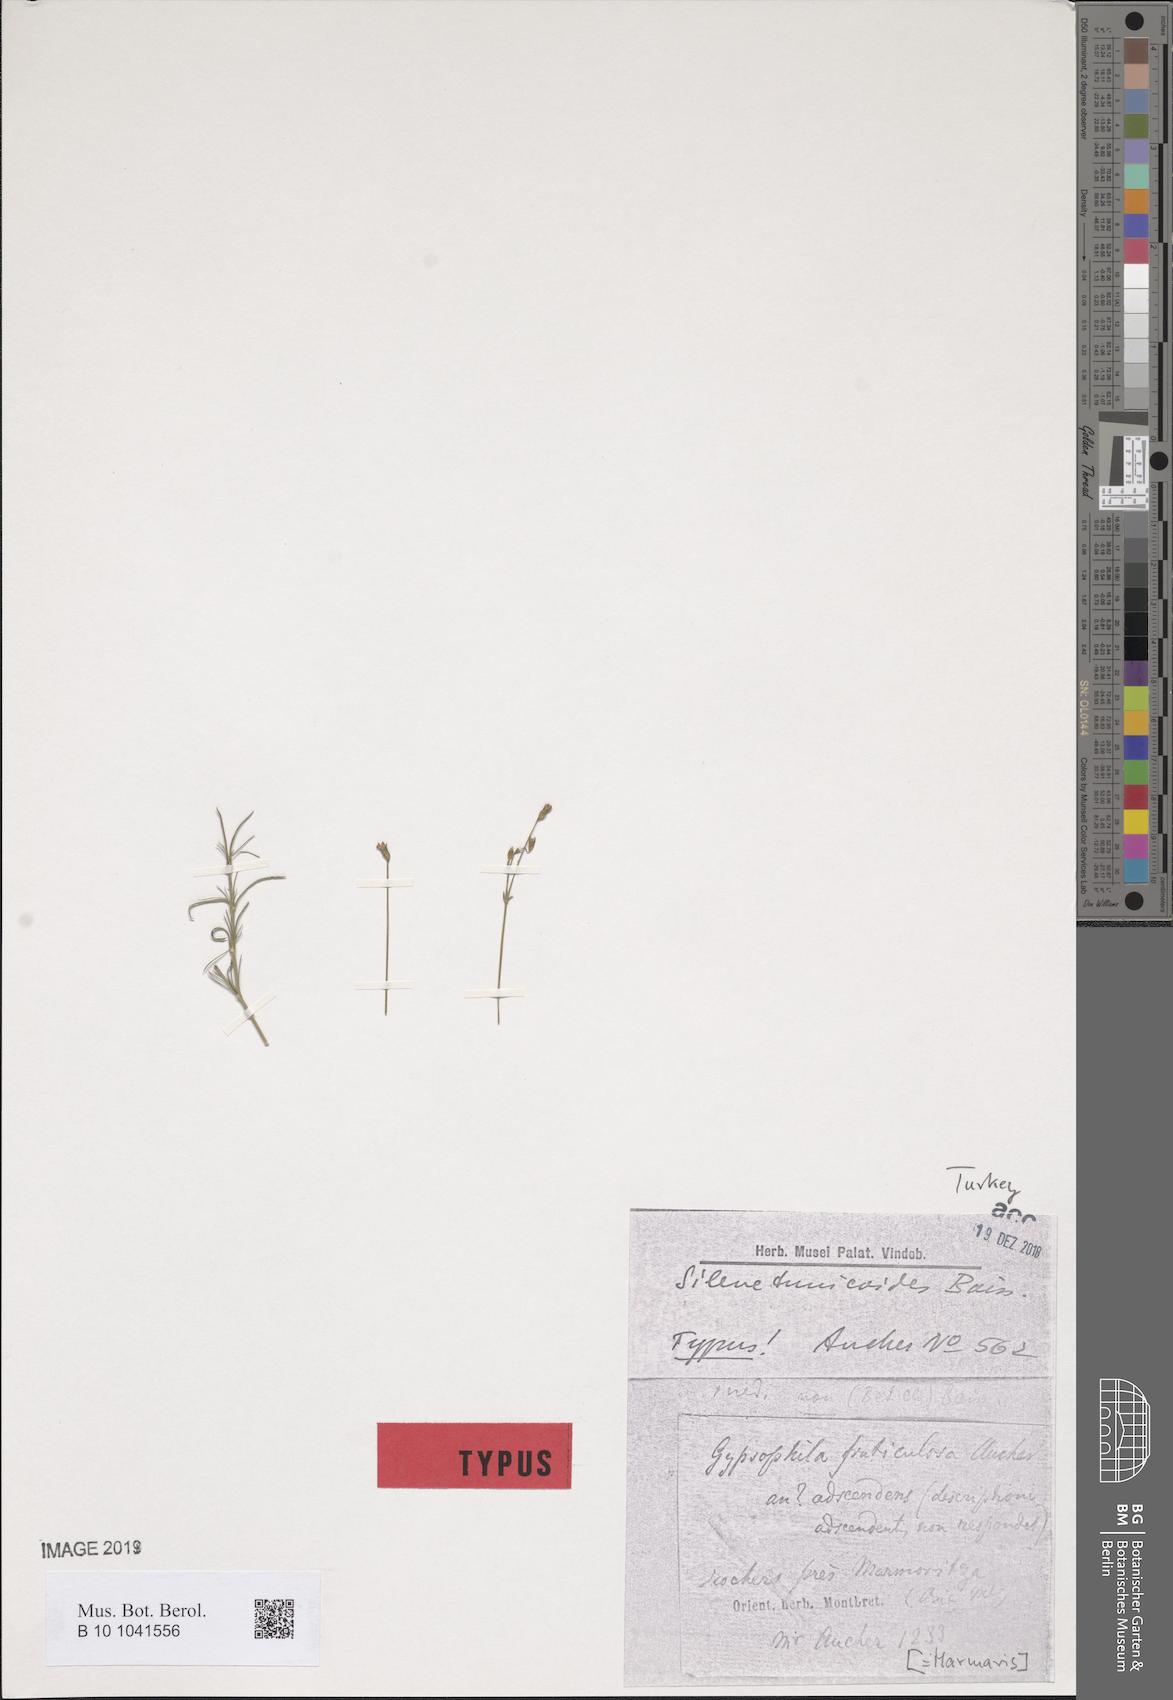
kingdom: Plantae
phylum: Tracheophyta
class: Magnoliopsida
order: Caryophyllales
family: Caryophyllaceae
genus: Silene
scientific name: Silene tunicoides
